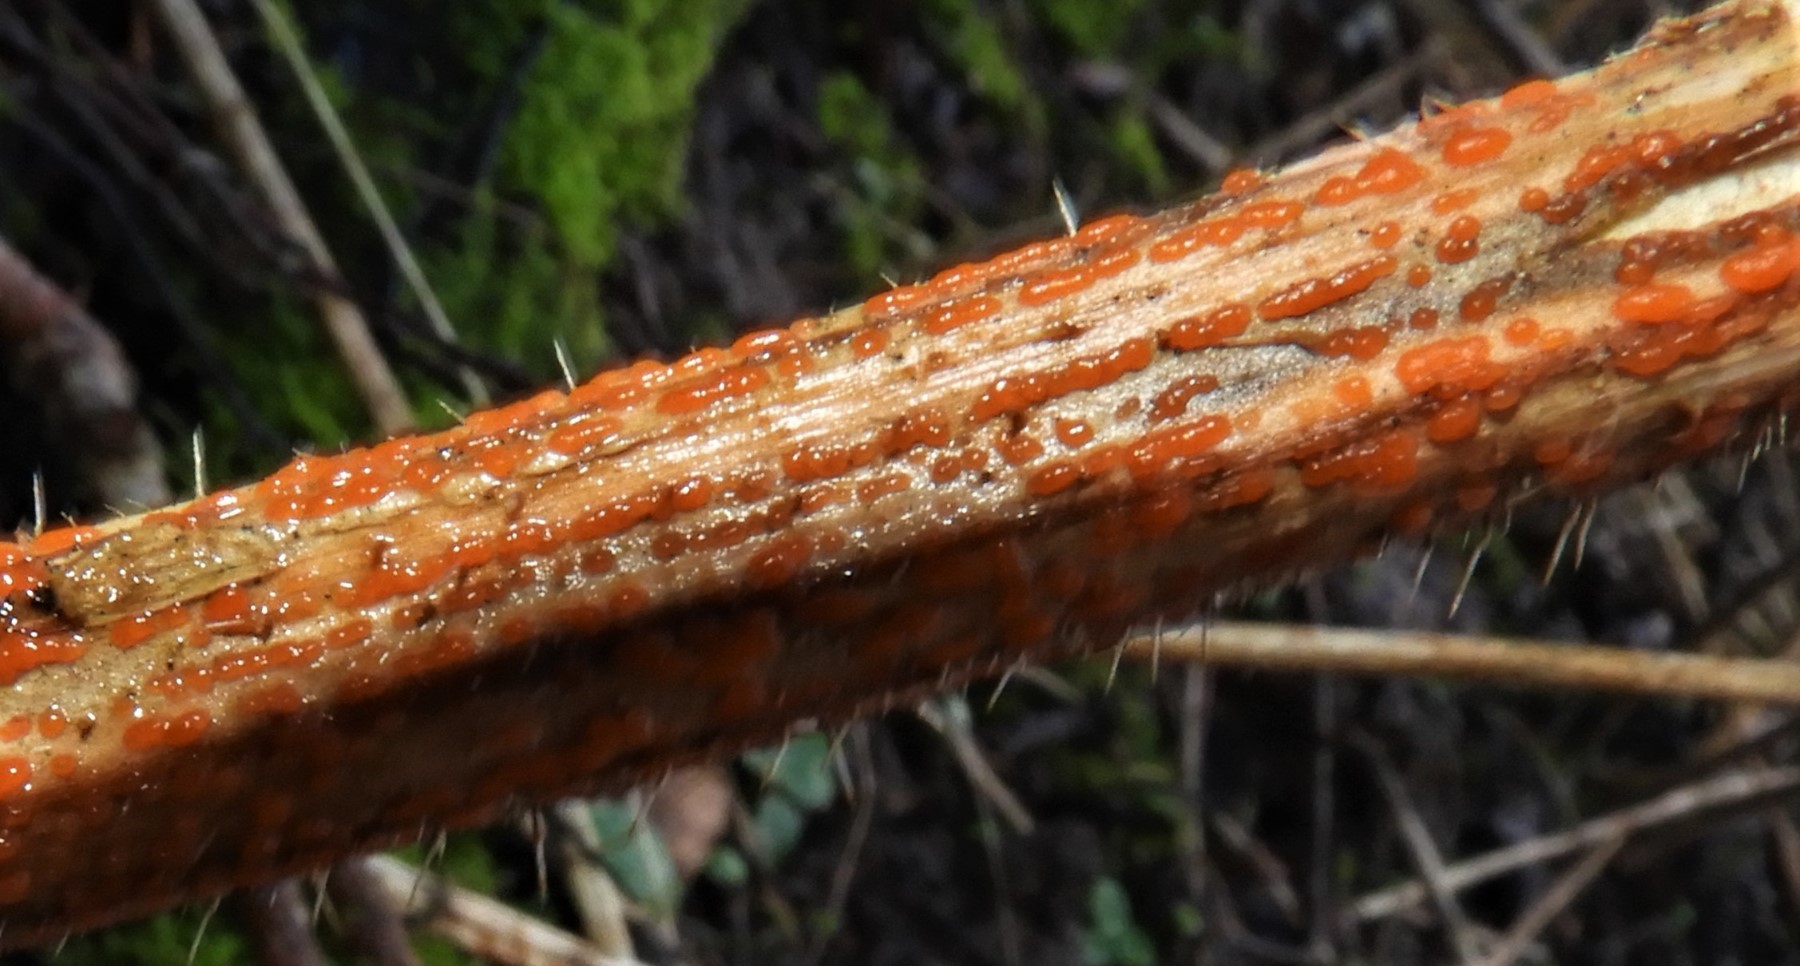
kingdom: Fungi
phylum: Ascomycota
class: Leotiomycetes
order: Helotiales
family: Calloriaceae
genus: Calloria
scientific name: Calloria urticae
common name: nælde-orangeskive
